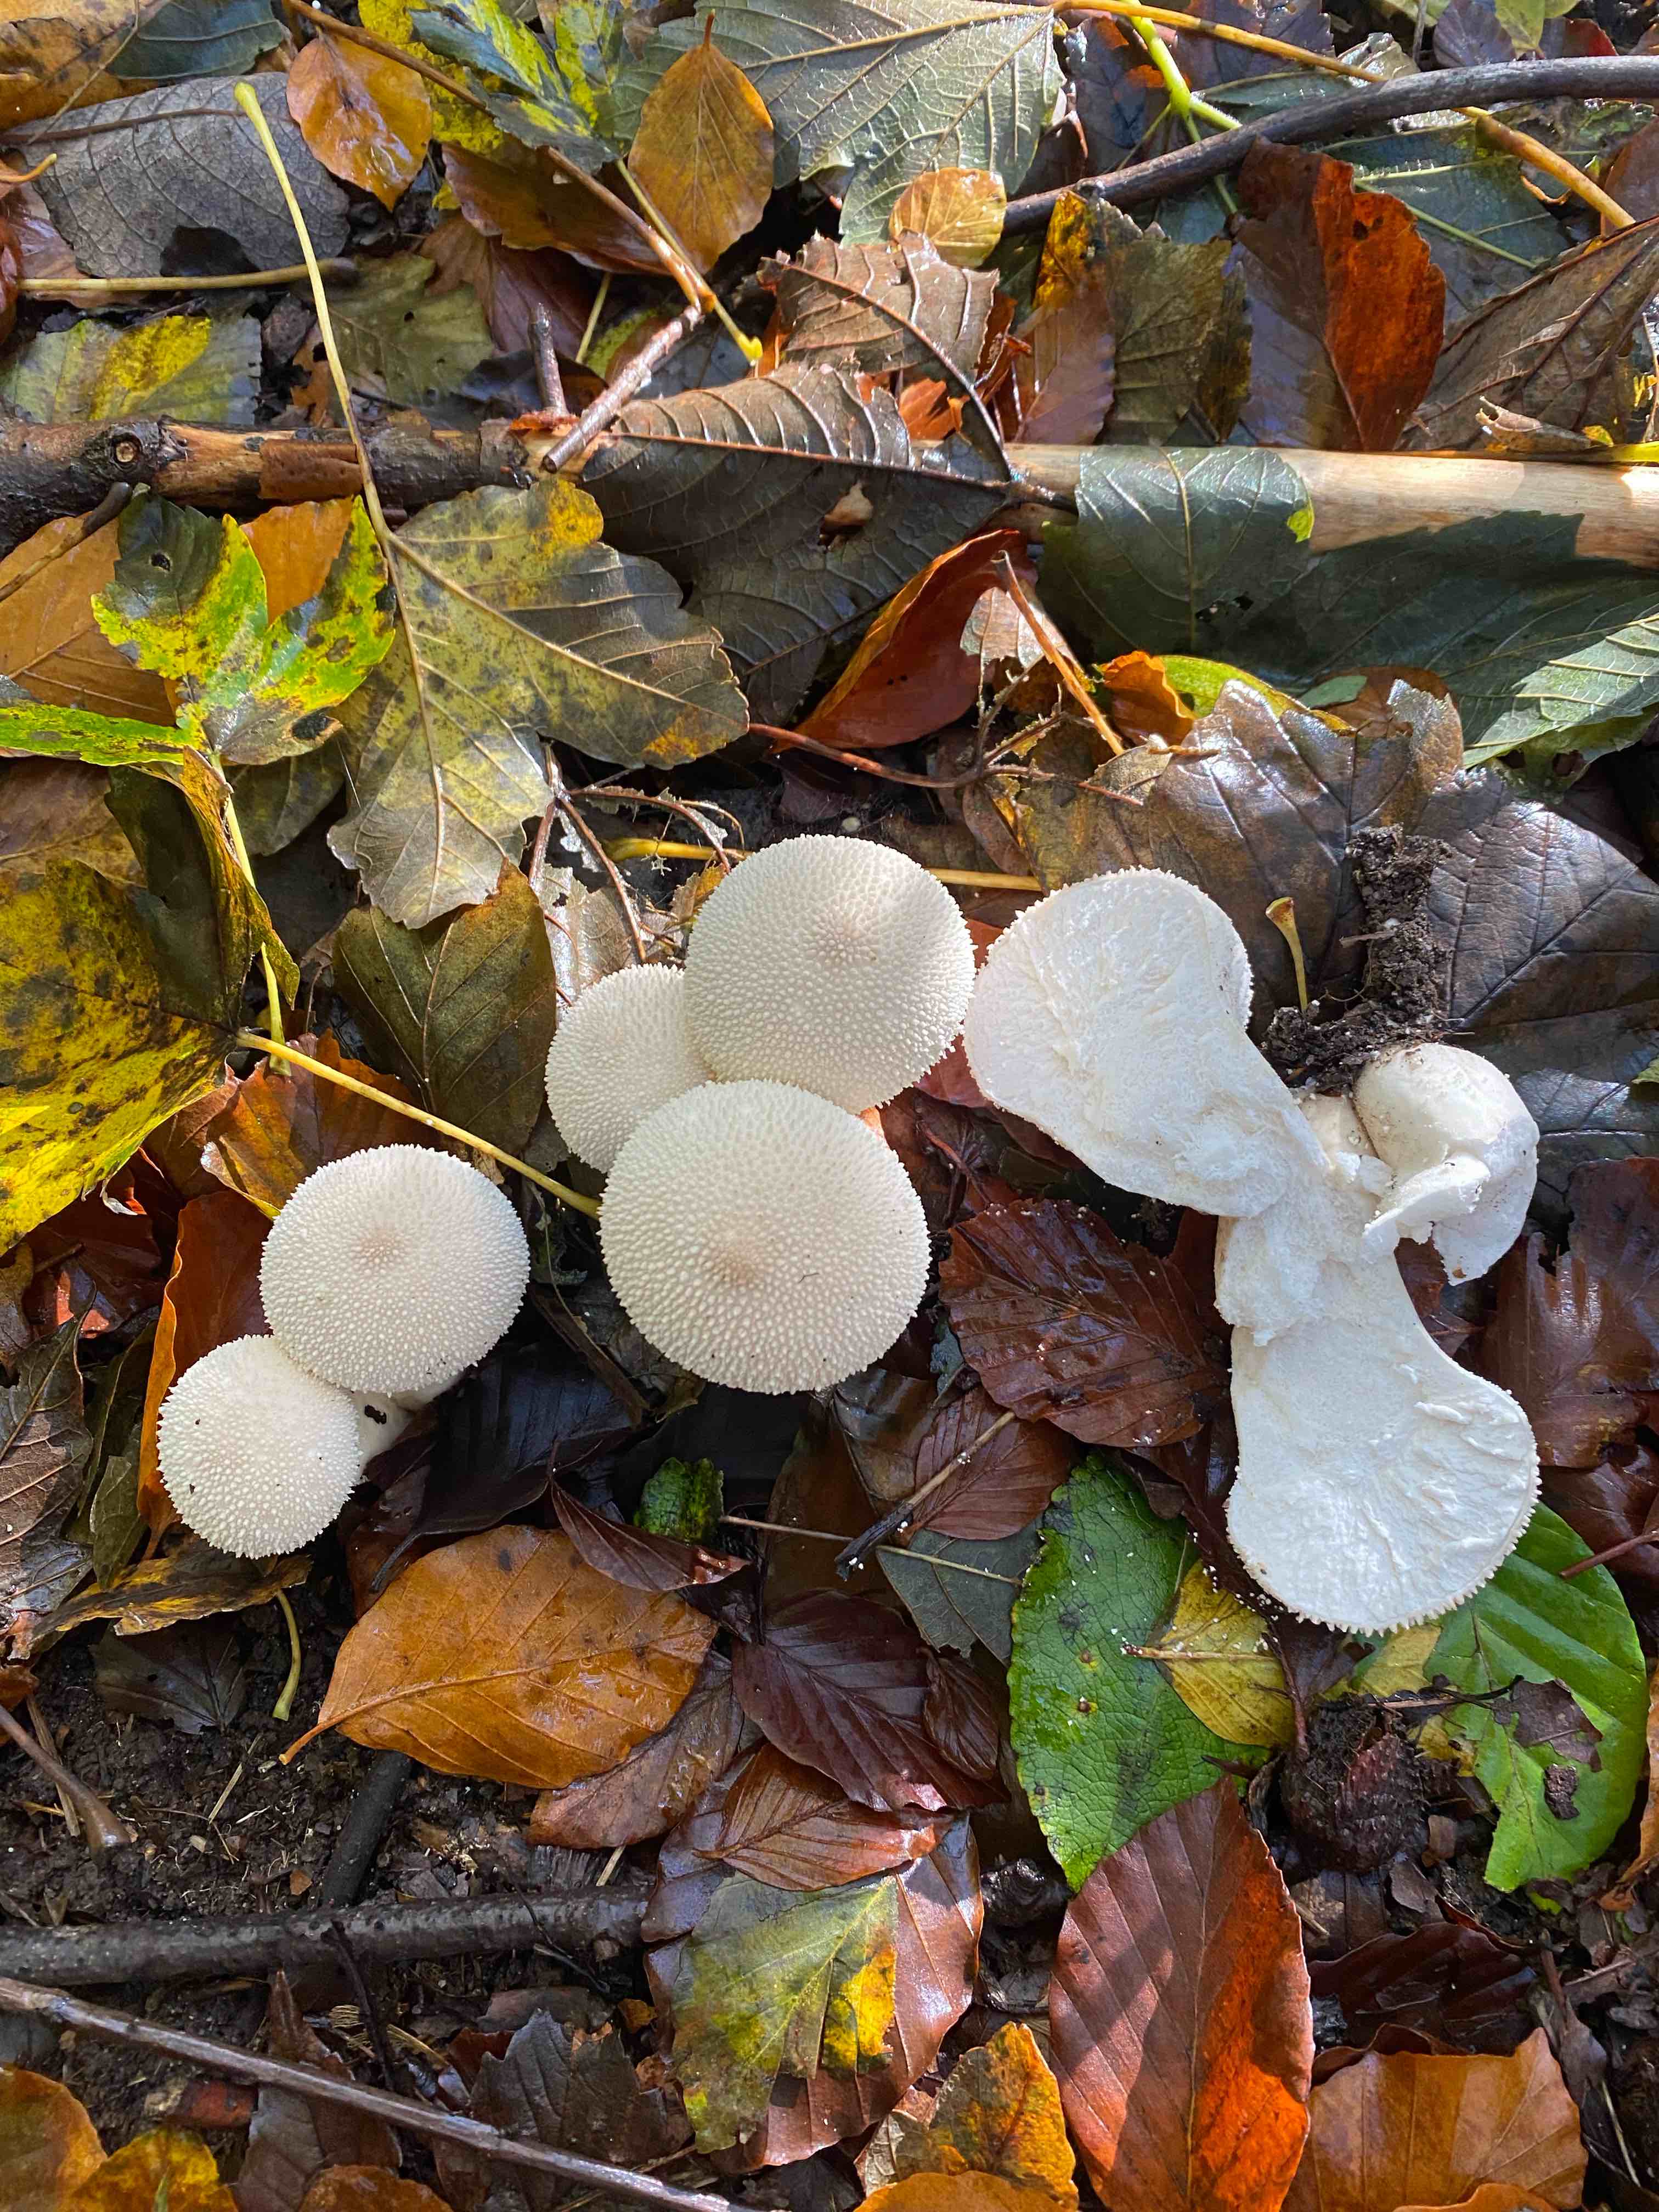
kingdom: Fungi
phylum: Basidiomycota
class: Agaricomycetes
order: Agaricales
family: Lycoperdaceae
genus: Lycoperdon
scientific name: Lycoperdon perlatum
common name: krystal-støvbold
